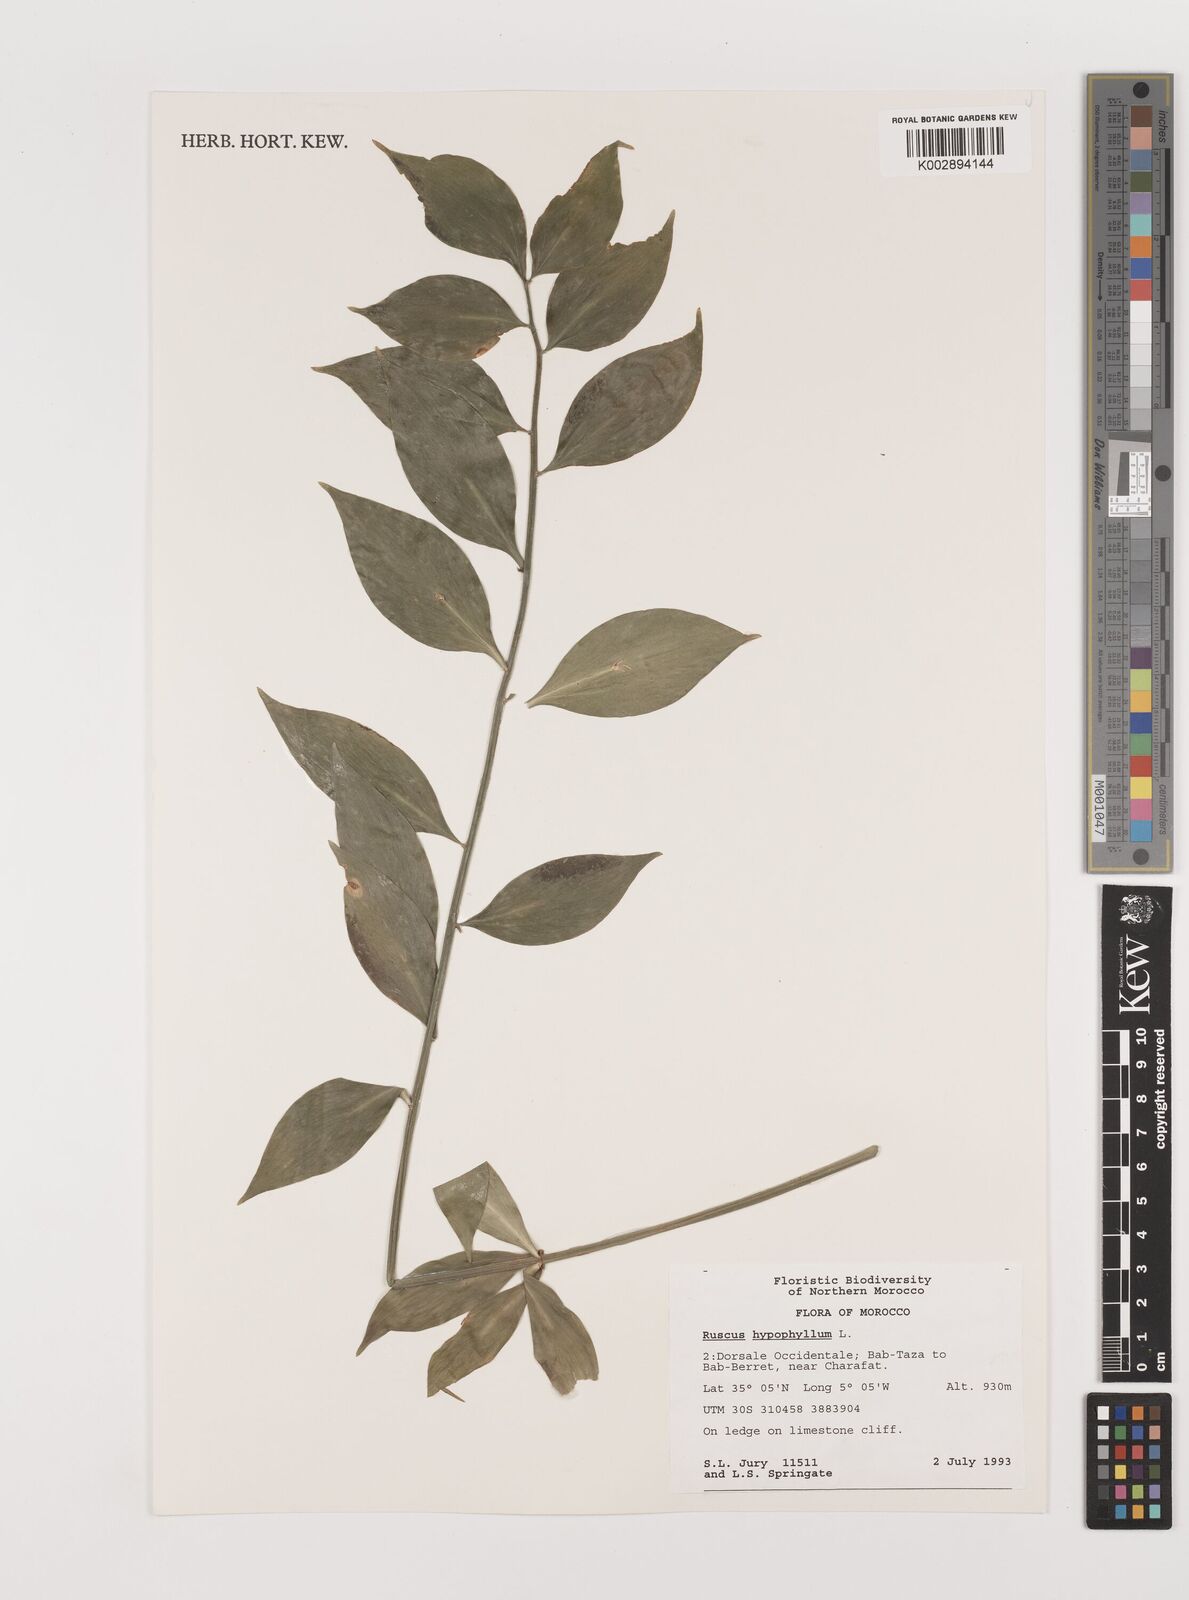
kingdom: Plantae
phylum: Tracheophyta
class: Liliopsida
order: Asparagales
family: Asparagaceae
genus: Ruscus
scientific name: Ruscus hypophyllum
